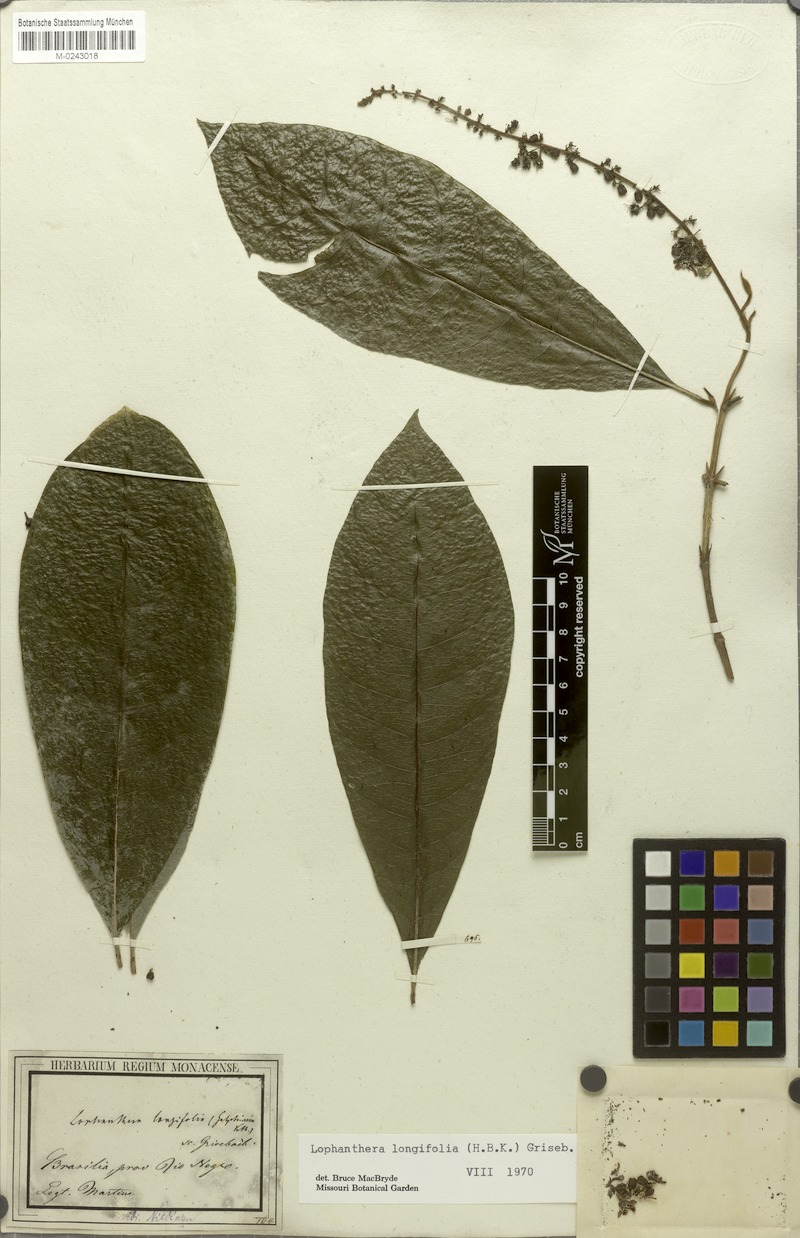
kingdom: Plantae
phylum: Tracheophyta
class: Magnoliopsida
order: Malpighiales
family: Malpighiaceae
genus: Lophanthera
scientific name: Lophanthera longifolia
